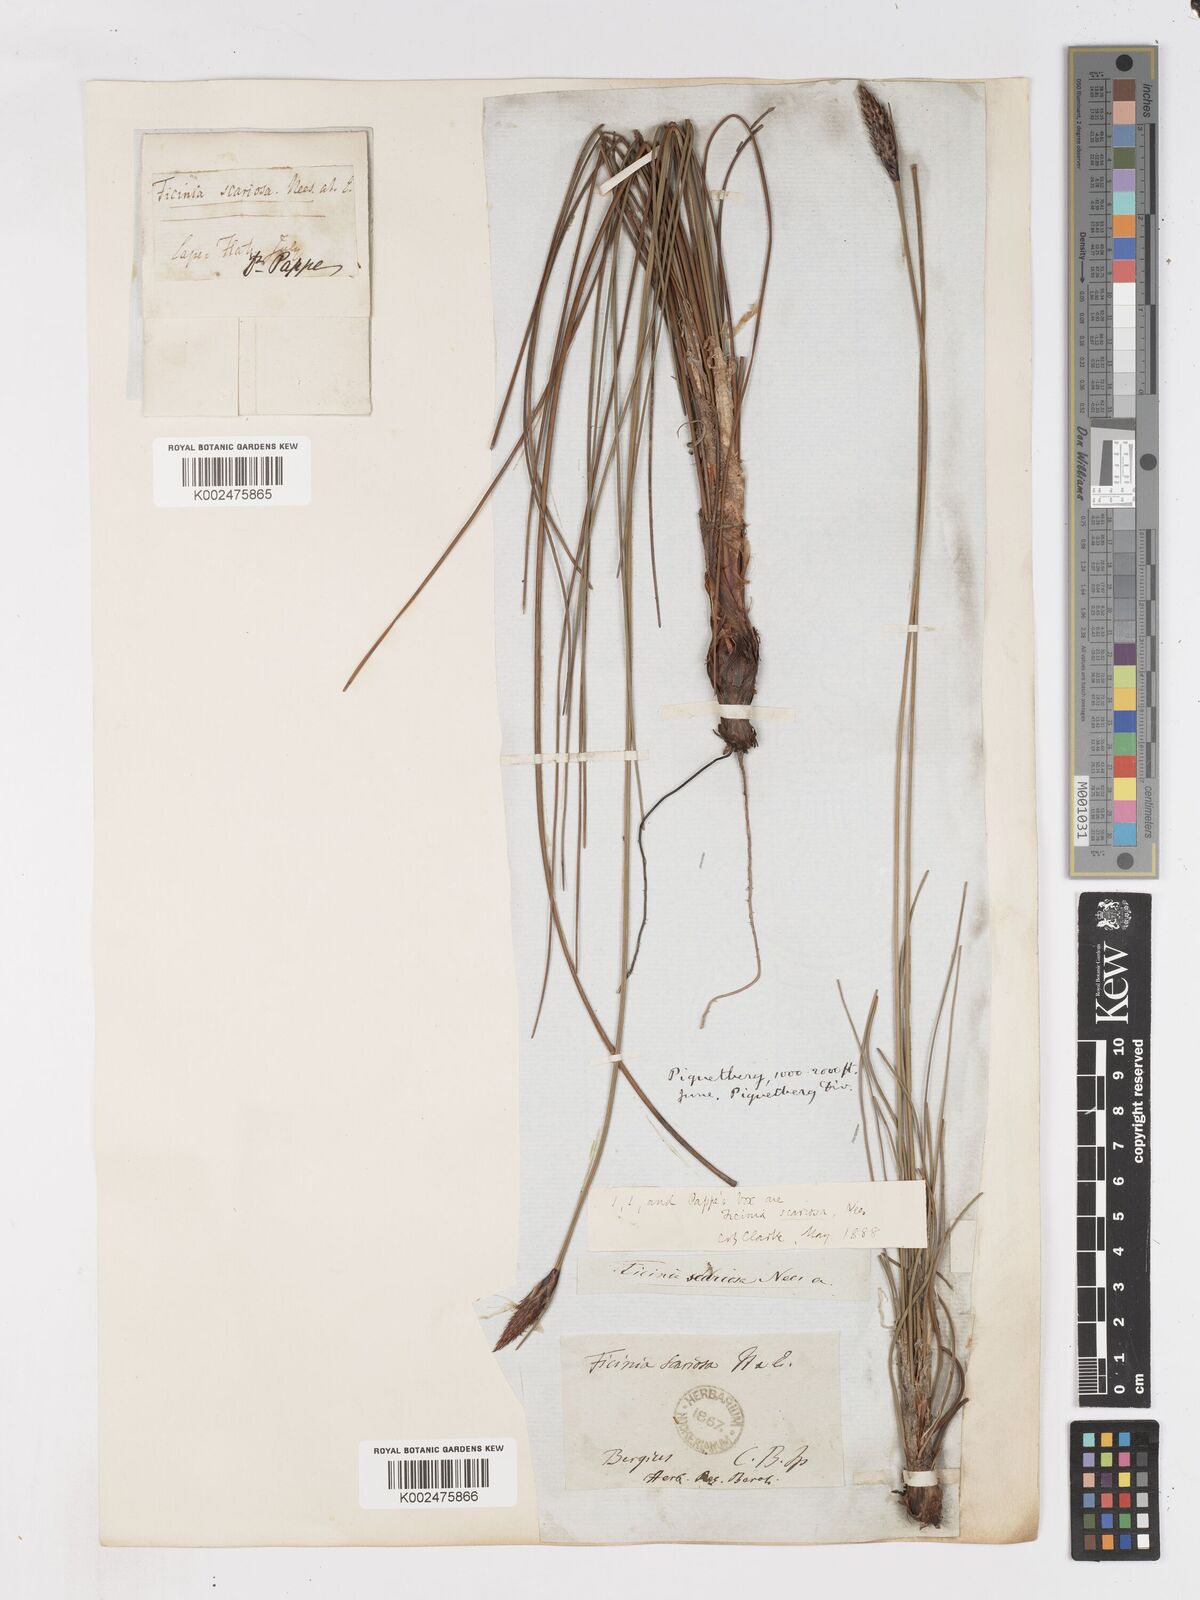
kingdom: Plantae
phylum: Tracheophyta
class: Liliopsida
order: Poales
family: Cyperaceae
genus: Ficinia
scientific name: Ficinia deusta
